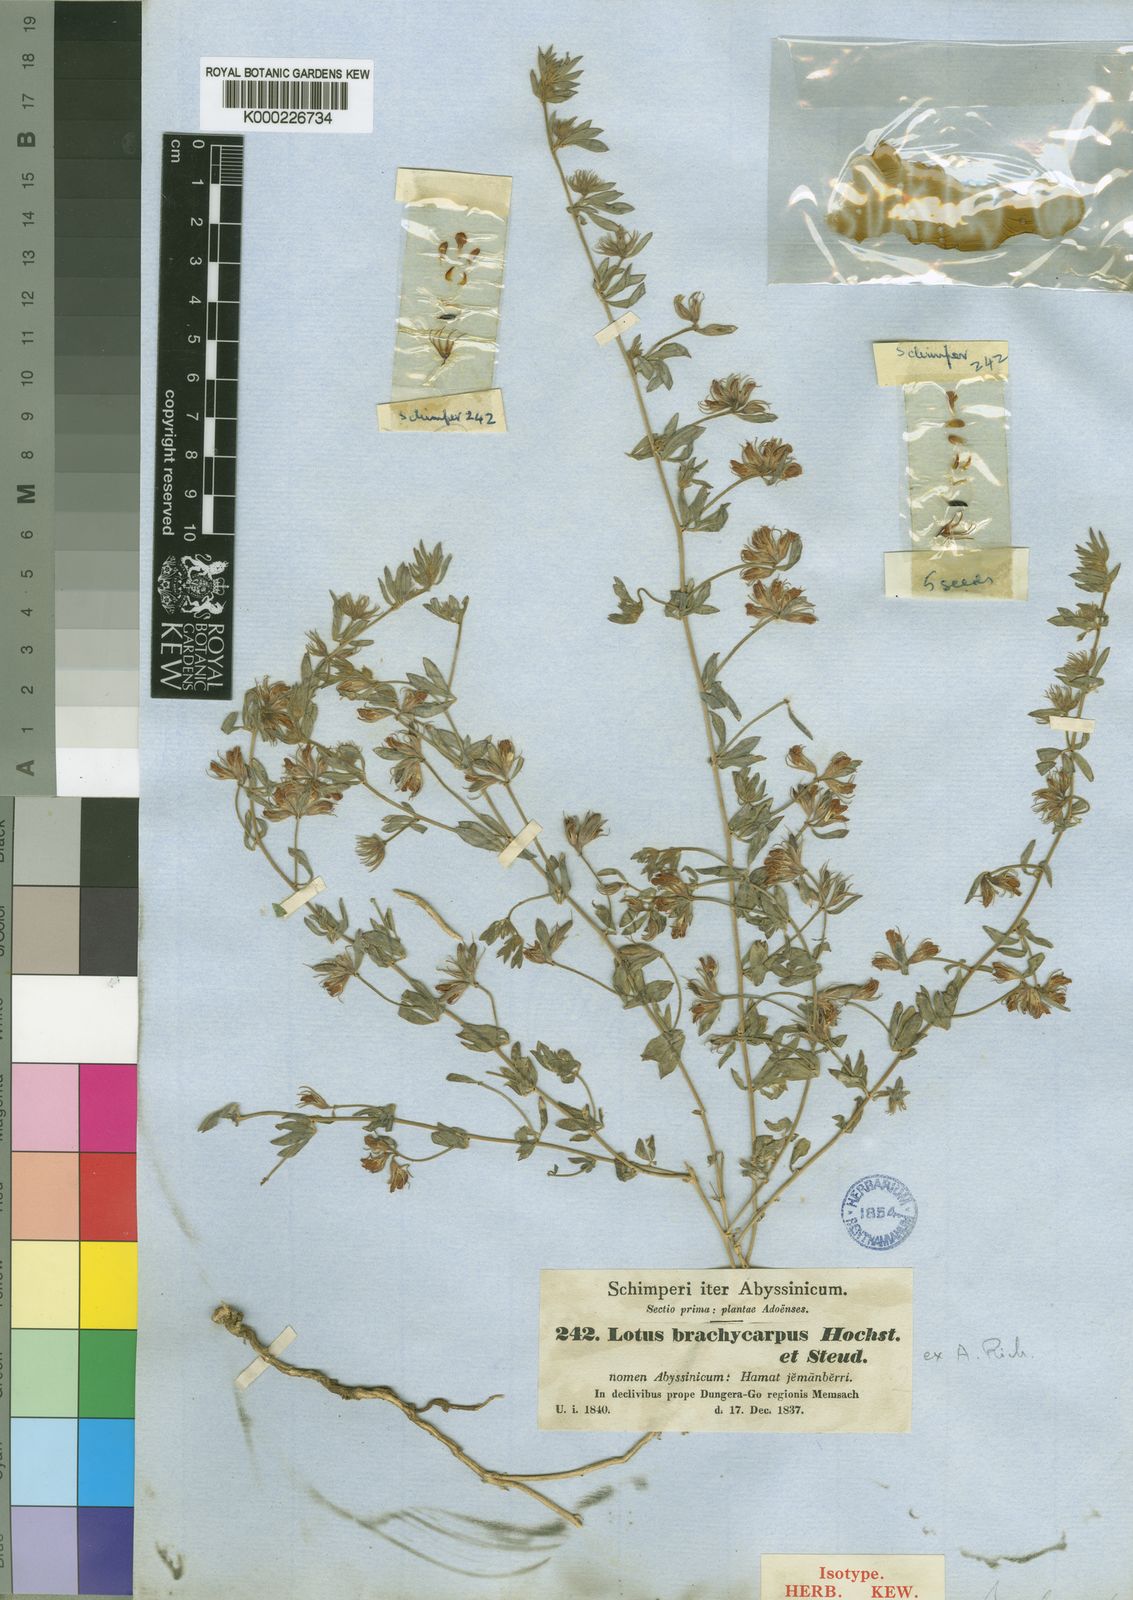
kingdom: Plantae
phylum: Tracheophyta
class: Magnoliopsida
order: Fabales
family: Fabaceae
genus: Lotus
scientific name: Lotus quinatus
